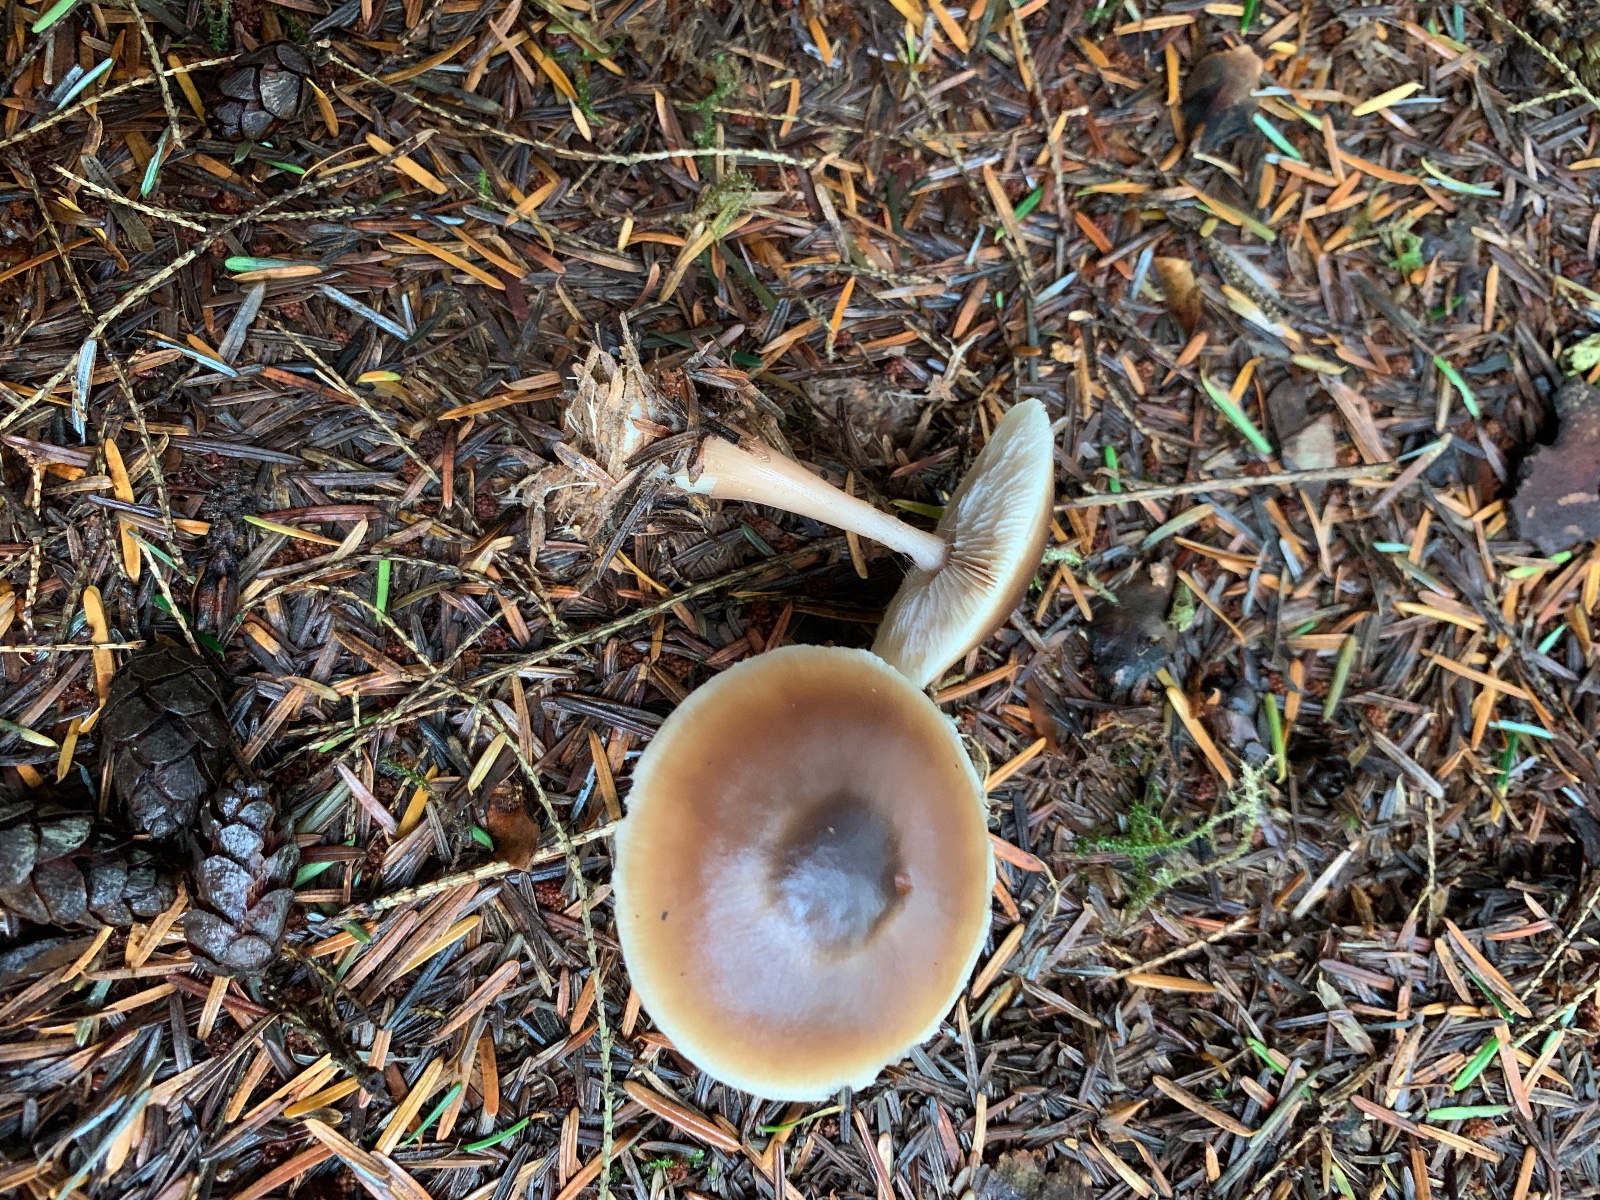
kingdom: Fungi
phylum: Basidiomycota
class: Agaricomycetes
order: Agaricales
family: Omphalotaceae
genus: Rhodocollybia
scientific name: Rhodocollybia asema
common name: horngrå fladhat
